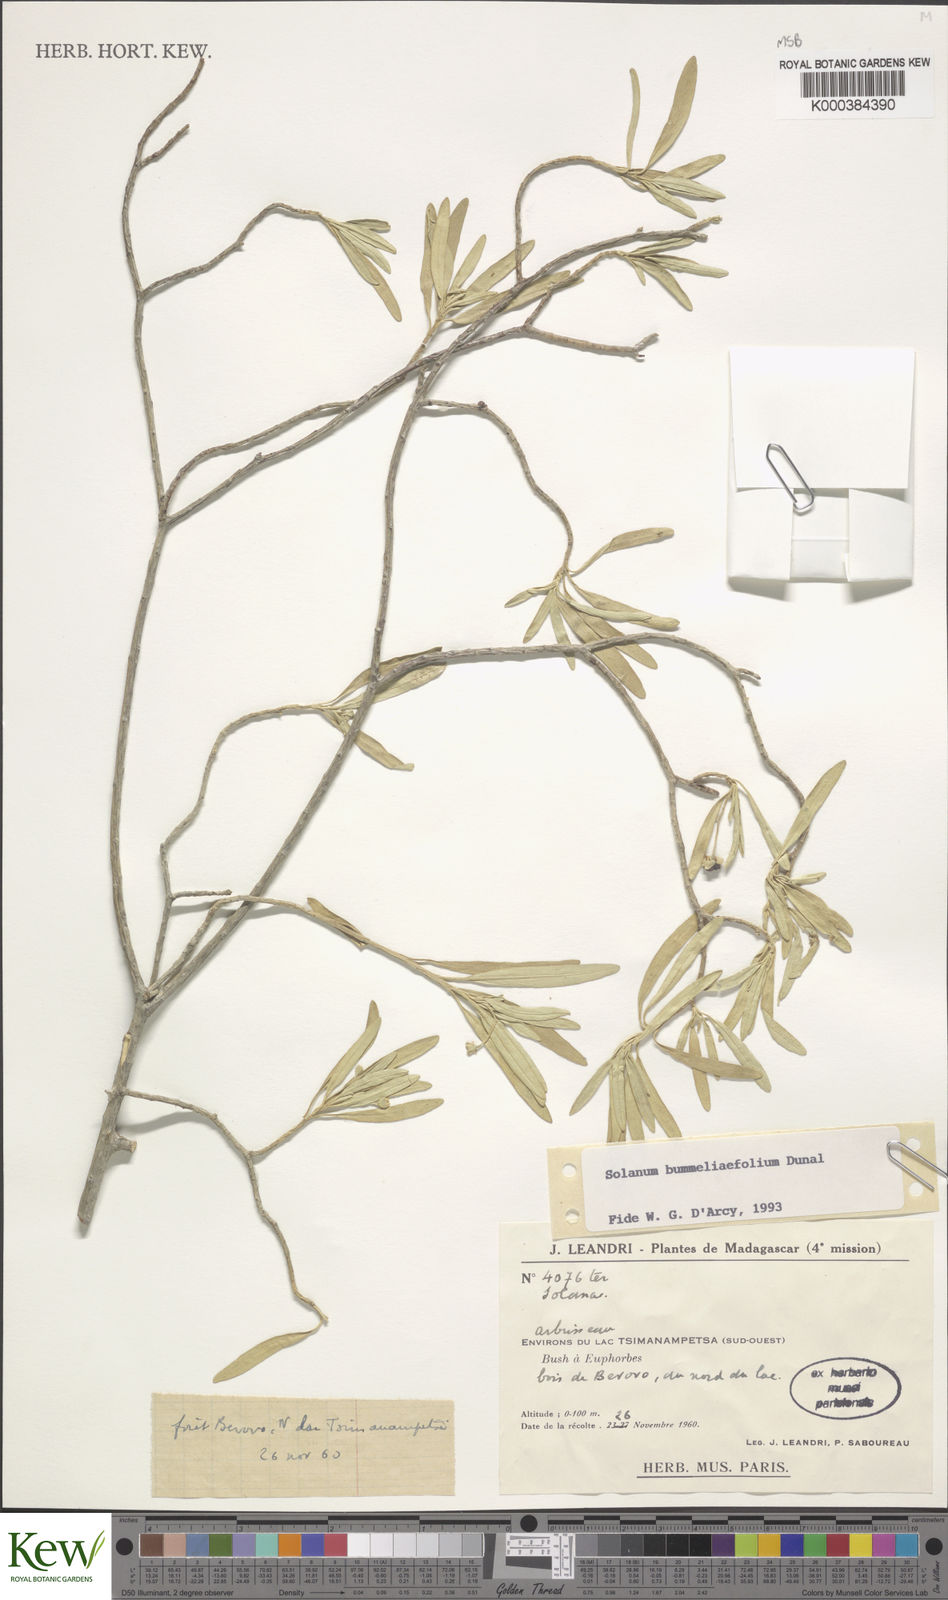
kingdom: Plantae
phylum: Tracheophyta
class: Magnoliopsida
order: Solanales
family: Solanaceae
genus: Solanum
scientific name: Solanum bumeliifolium
